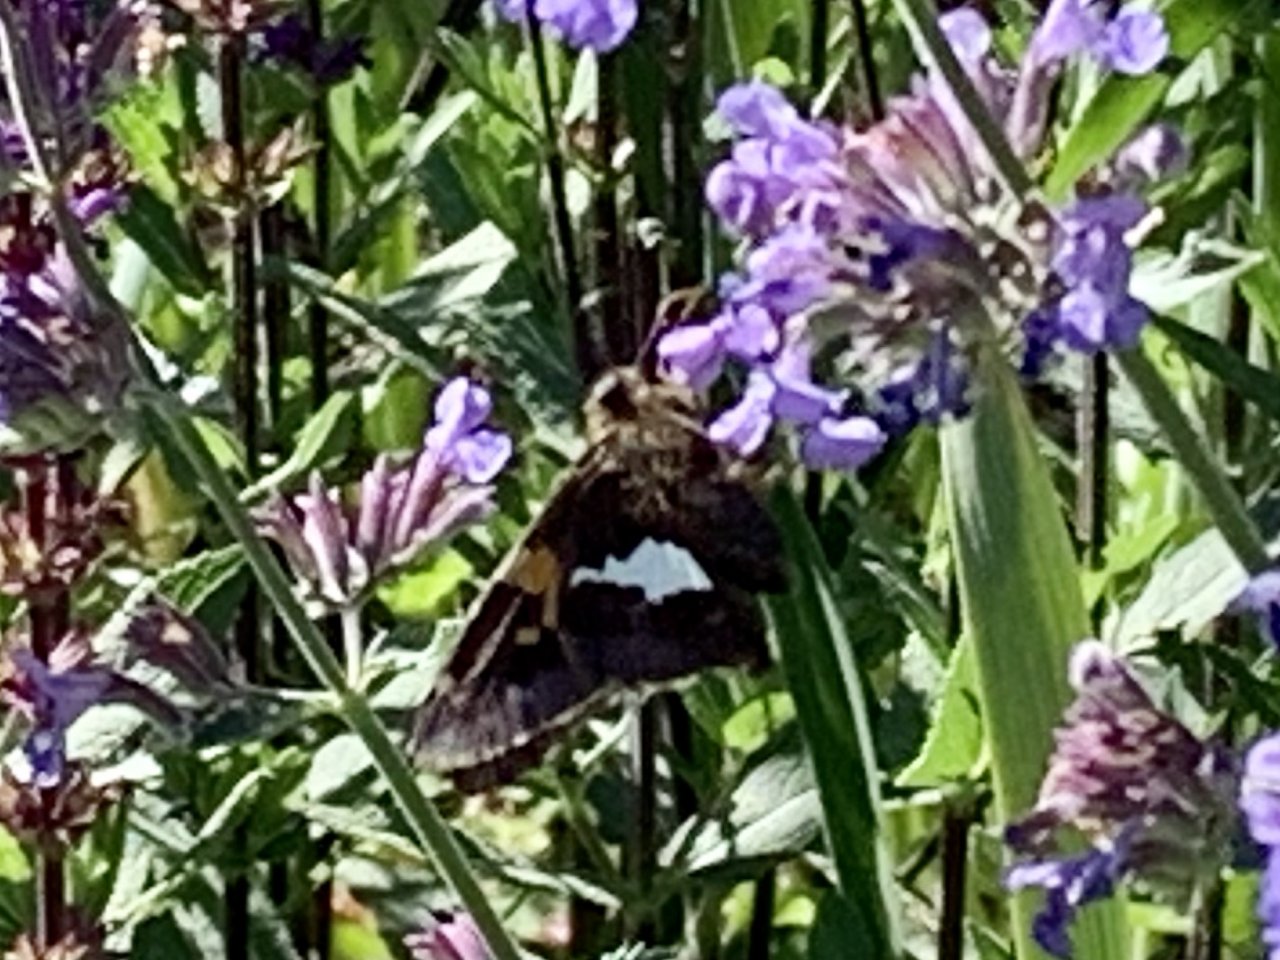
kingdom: Animalia
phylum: Arthropoda
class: Insecta
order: Lepidoptera
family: Hesperiidae
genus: Epargyreus
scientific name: Epargyreus clarus
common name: Silver-spotted Skipper
